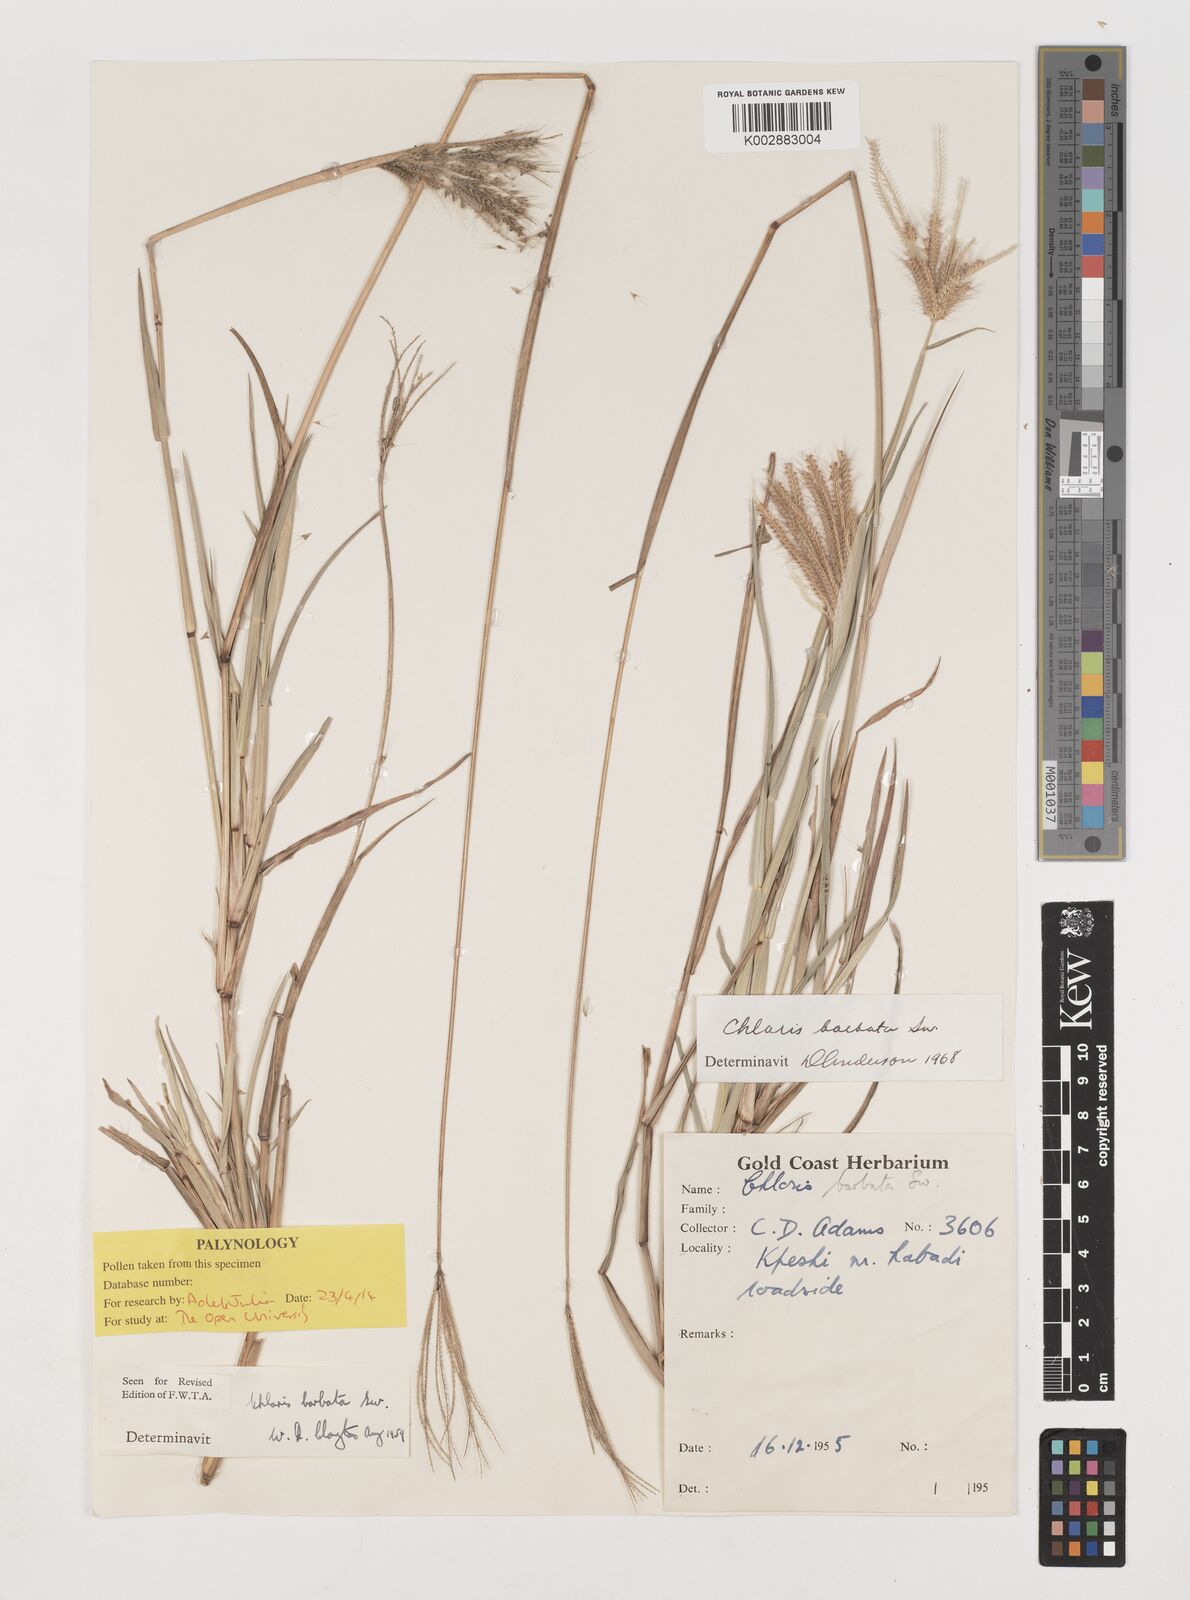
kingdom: Plantae
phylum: Tracheophyta
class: Liliopsida
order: Poales
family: Poaceae
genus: Chloris
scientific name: Chloris barbata
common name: Swollen fingergrass
